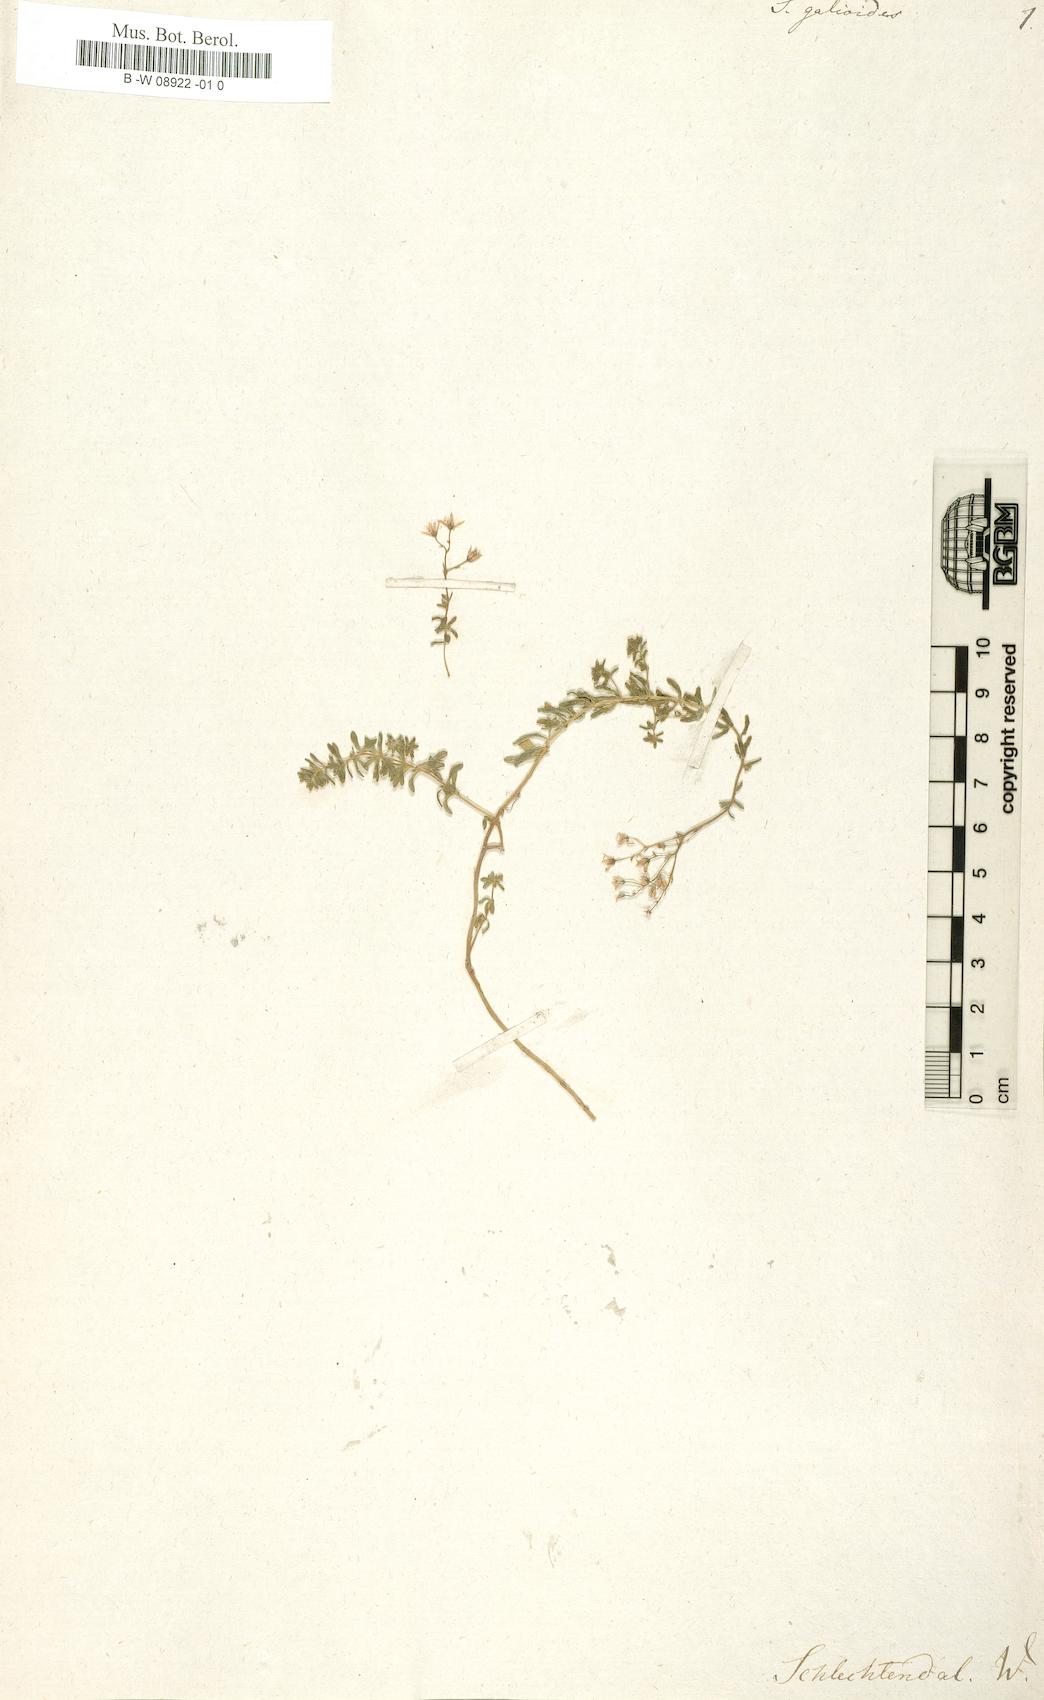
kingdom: Plantae
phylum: Tracheophyta
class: Magnoliopsida
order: Saxifragales
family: Crassulaceae
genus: Sedum
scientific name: Sedum elatinoides
